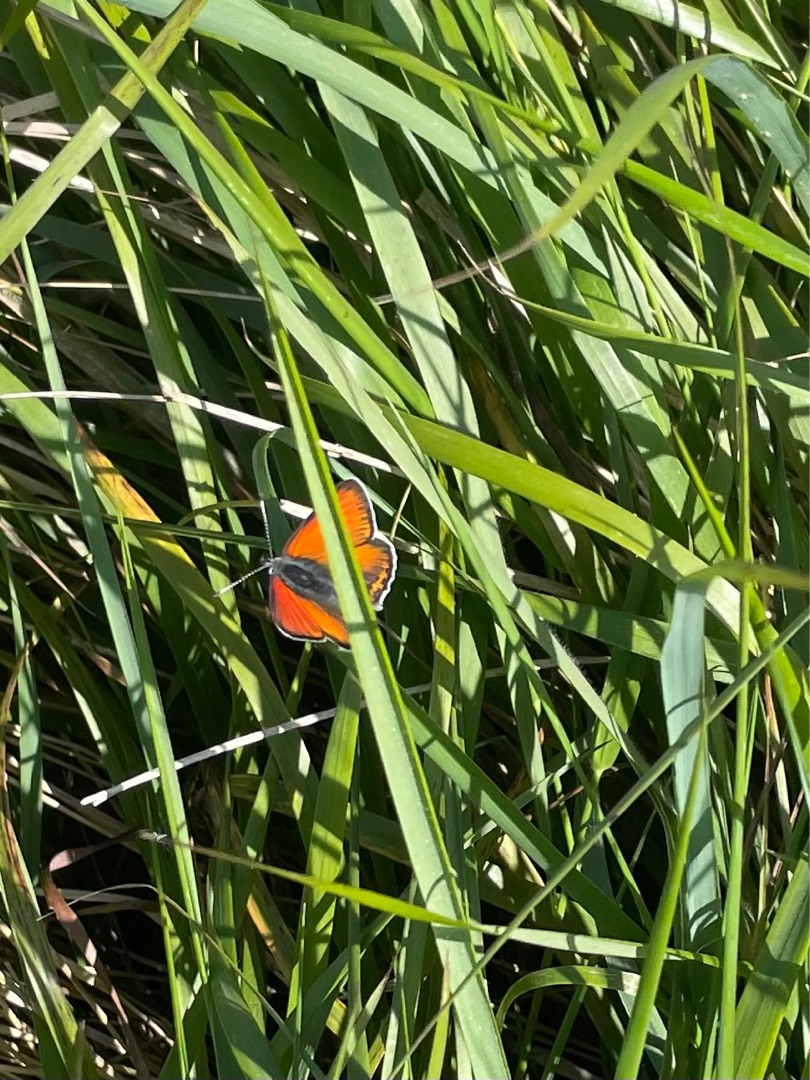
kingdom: Animalia
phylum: Arthropoda
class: Insecta
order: Lepidoptera
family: Lycaenidae
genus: Palaeochrysophanus
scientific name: Palaeochrysophanus hippothoe
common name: Violetrandet ildfugl
